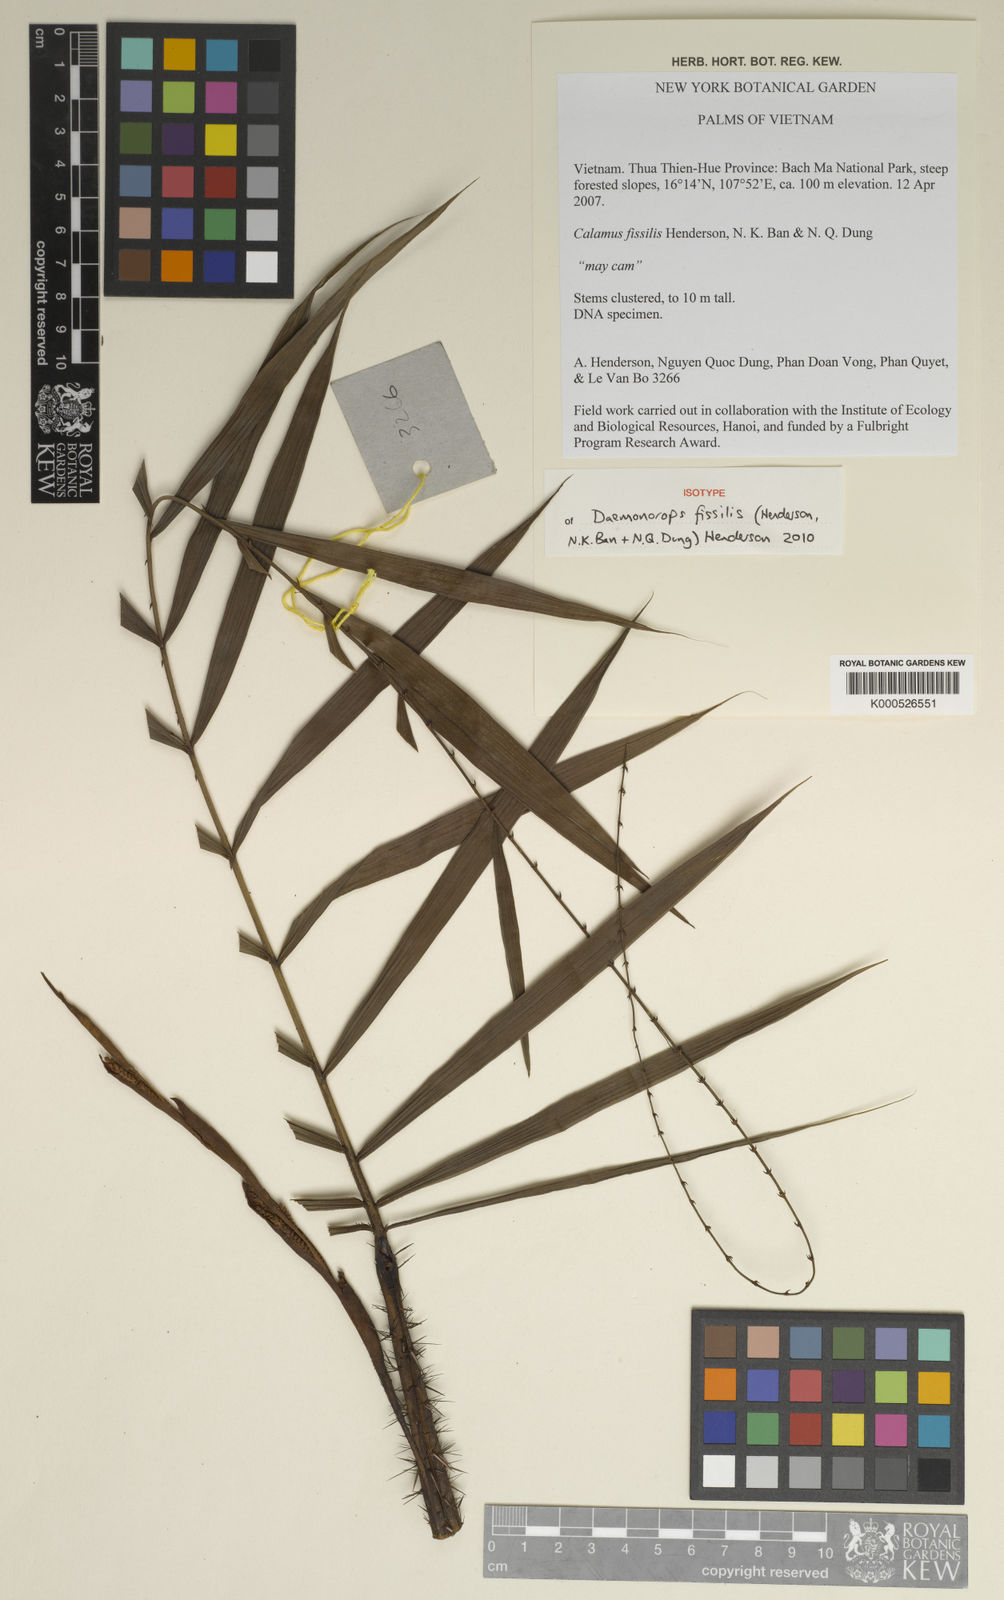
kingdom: Plantae
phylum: Tracheophyta
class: Liliopsida
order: Arecales
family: Arecaceae
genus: Calamus
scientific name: Calamus
